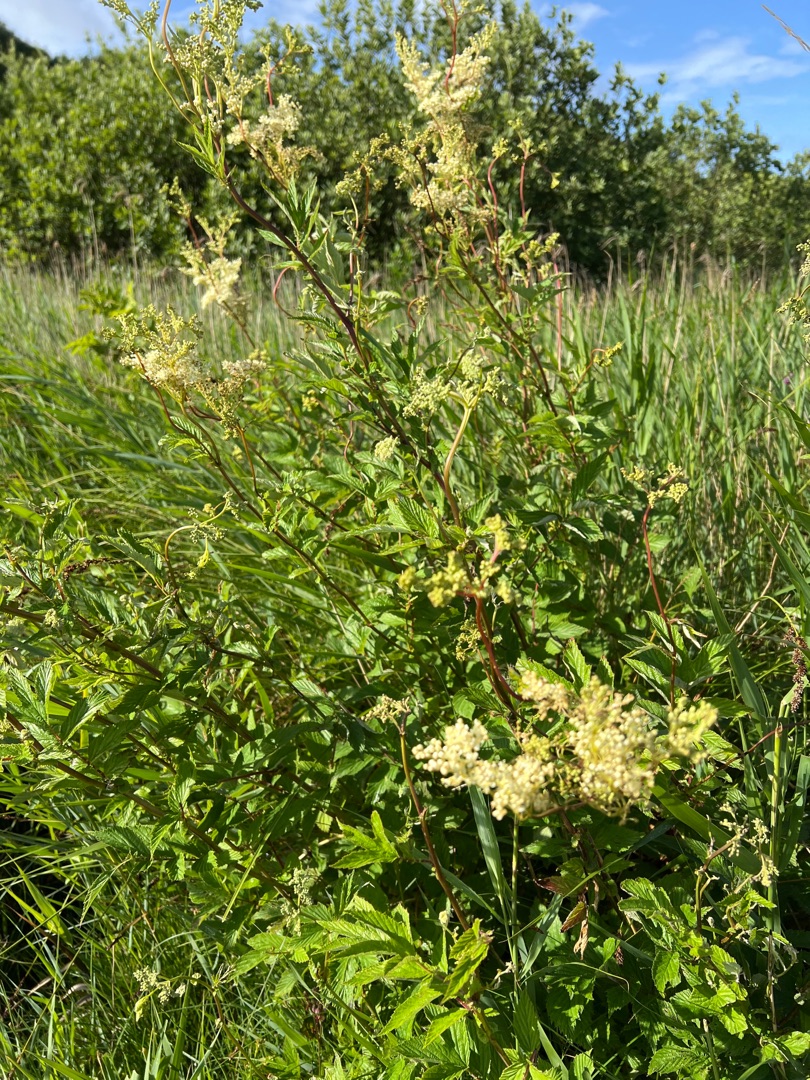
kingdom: Plantae
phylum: Tracheophyta
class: Magnoliopsida
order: Rosales
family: Rosaceae
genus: Filipendula
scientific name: Filipendula ulmaria
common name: Almindelig mjødurt
